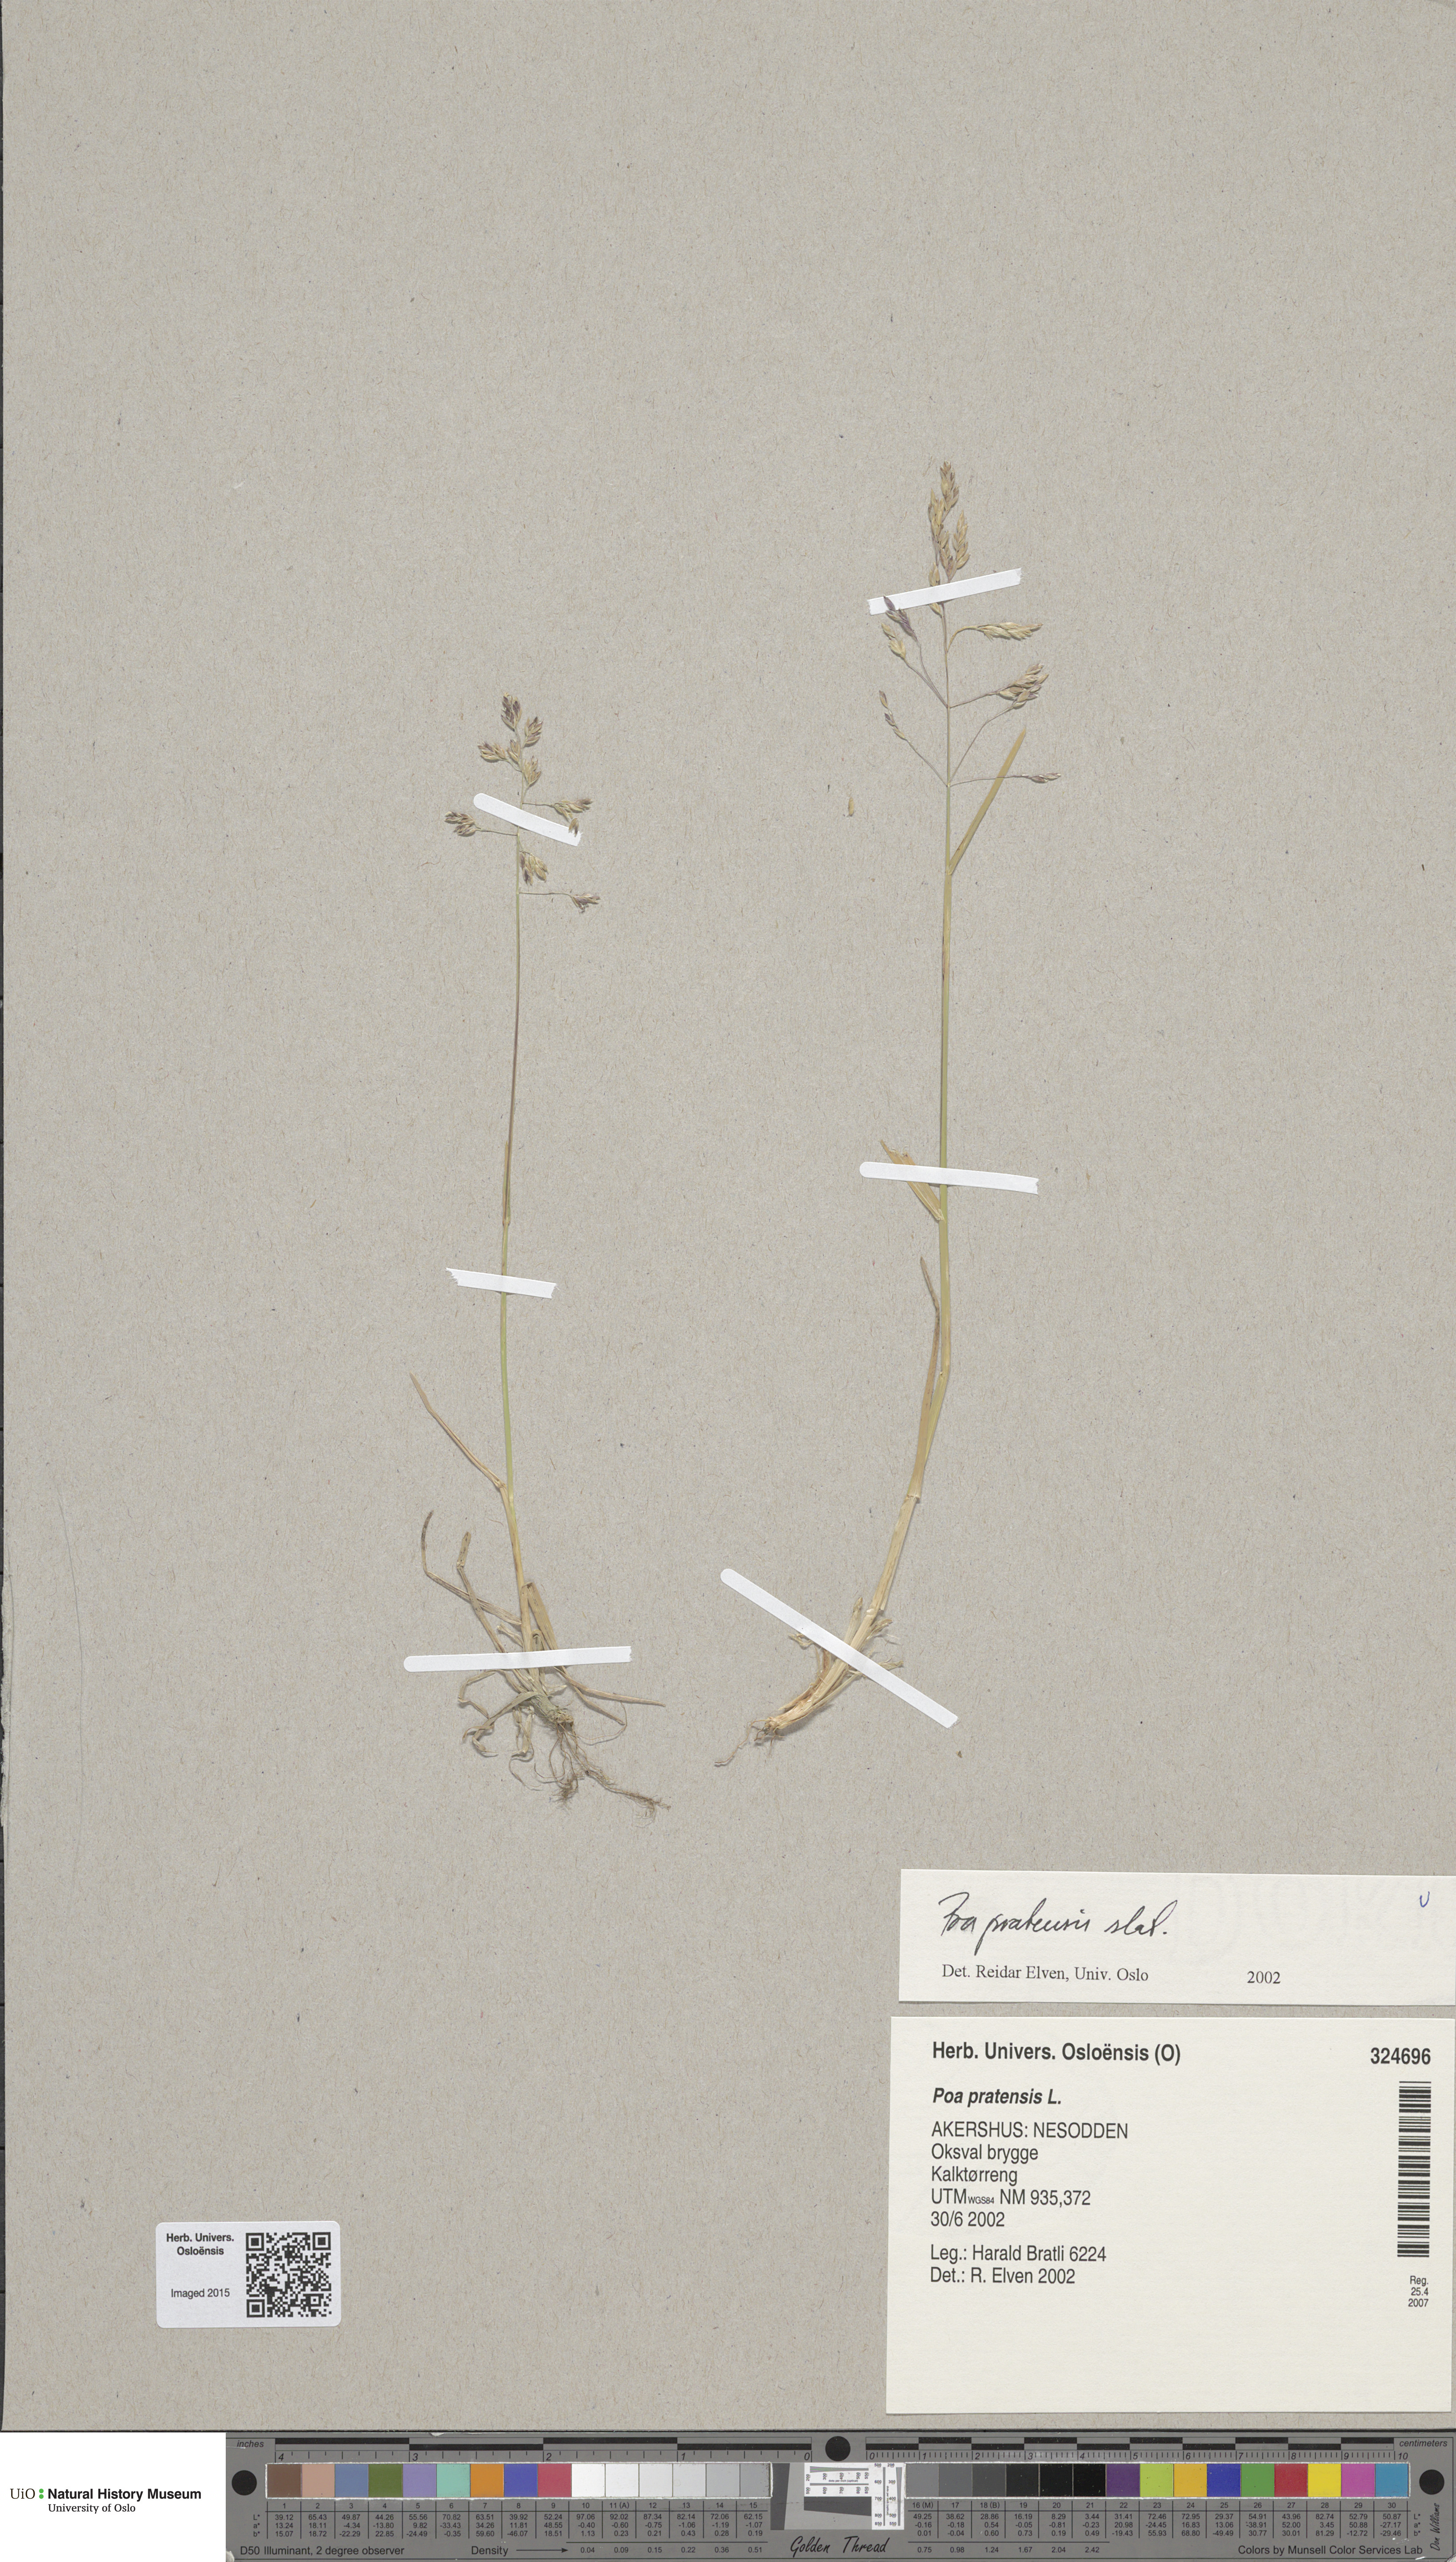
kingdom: Plantae
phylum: Tracheophyta
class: Liliopsida
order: Poales
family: Poaceae
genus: Poa
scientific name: Poa pratensis
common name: Kentucky bluegrass
